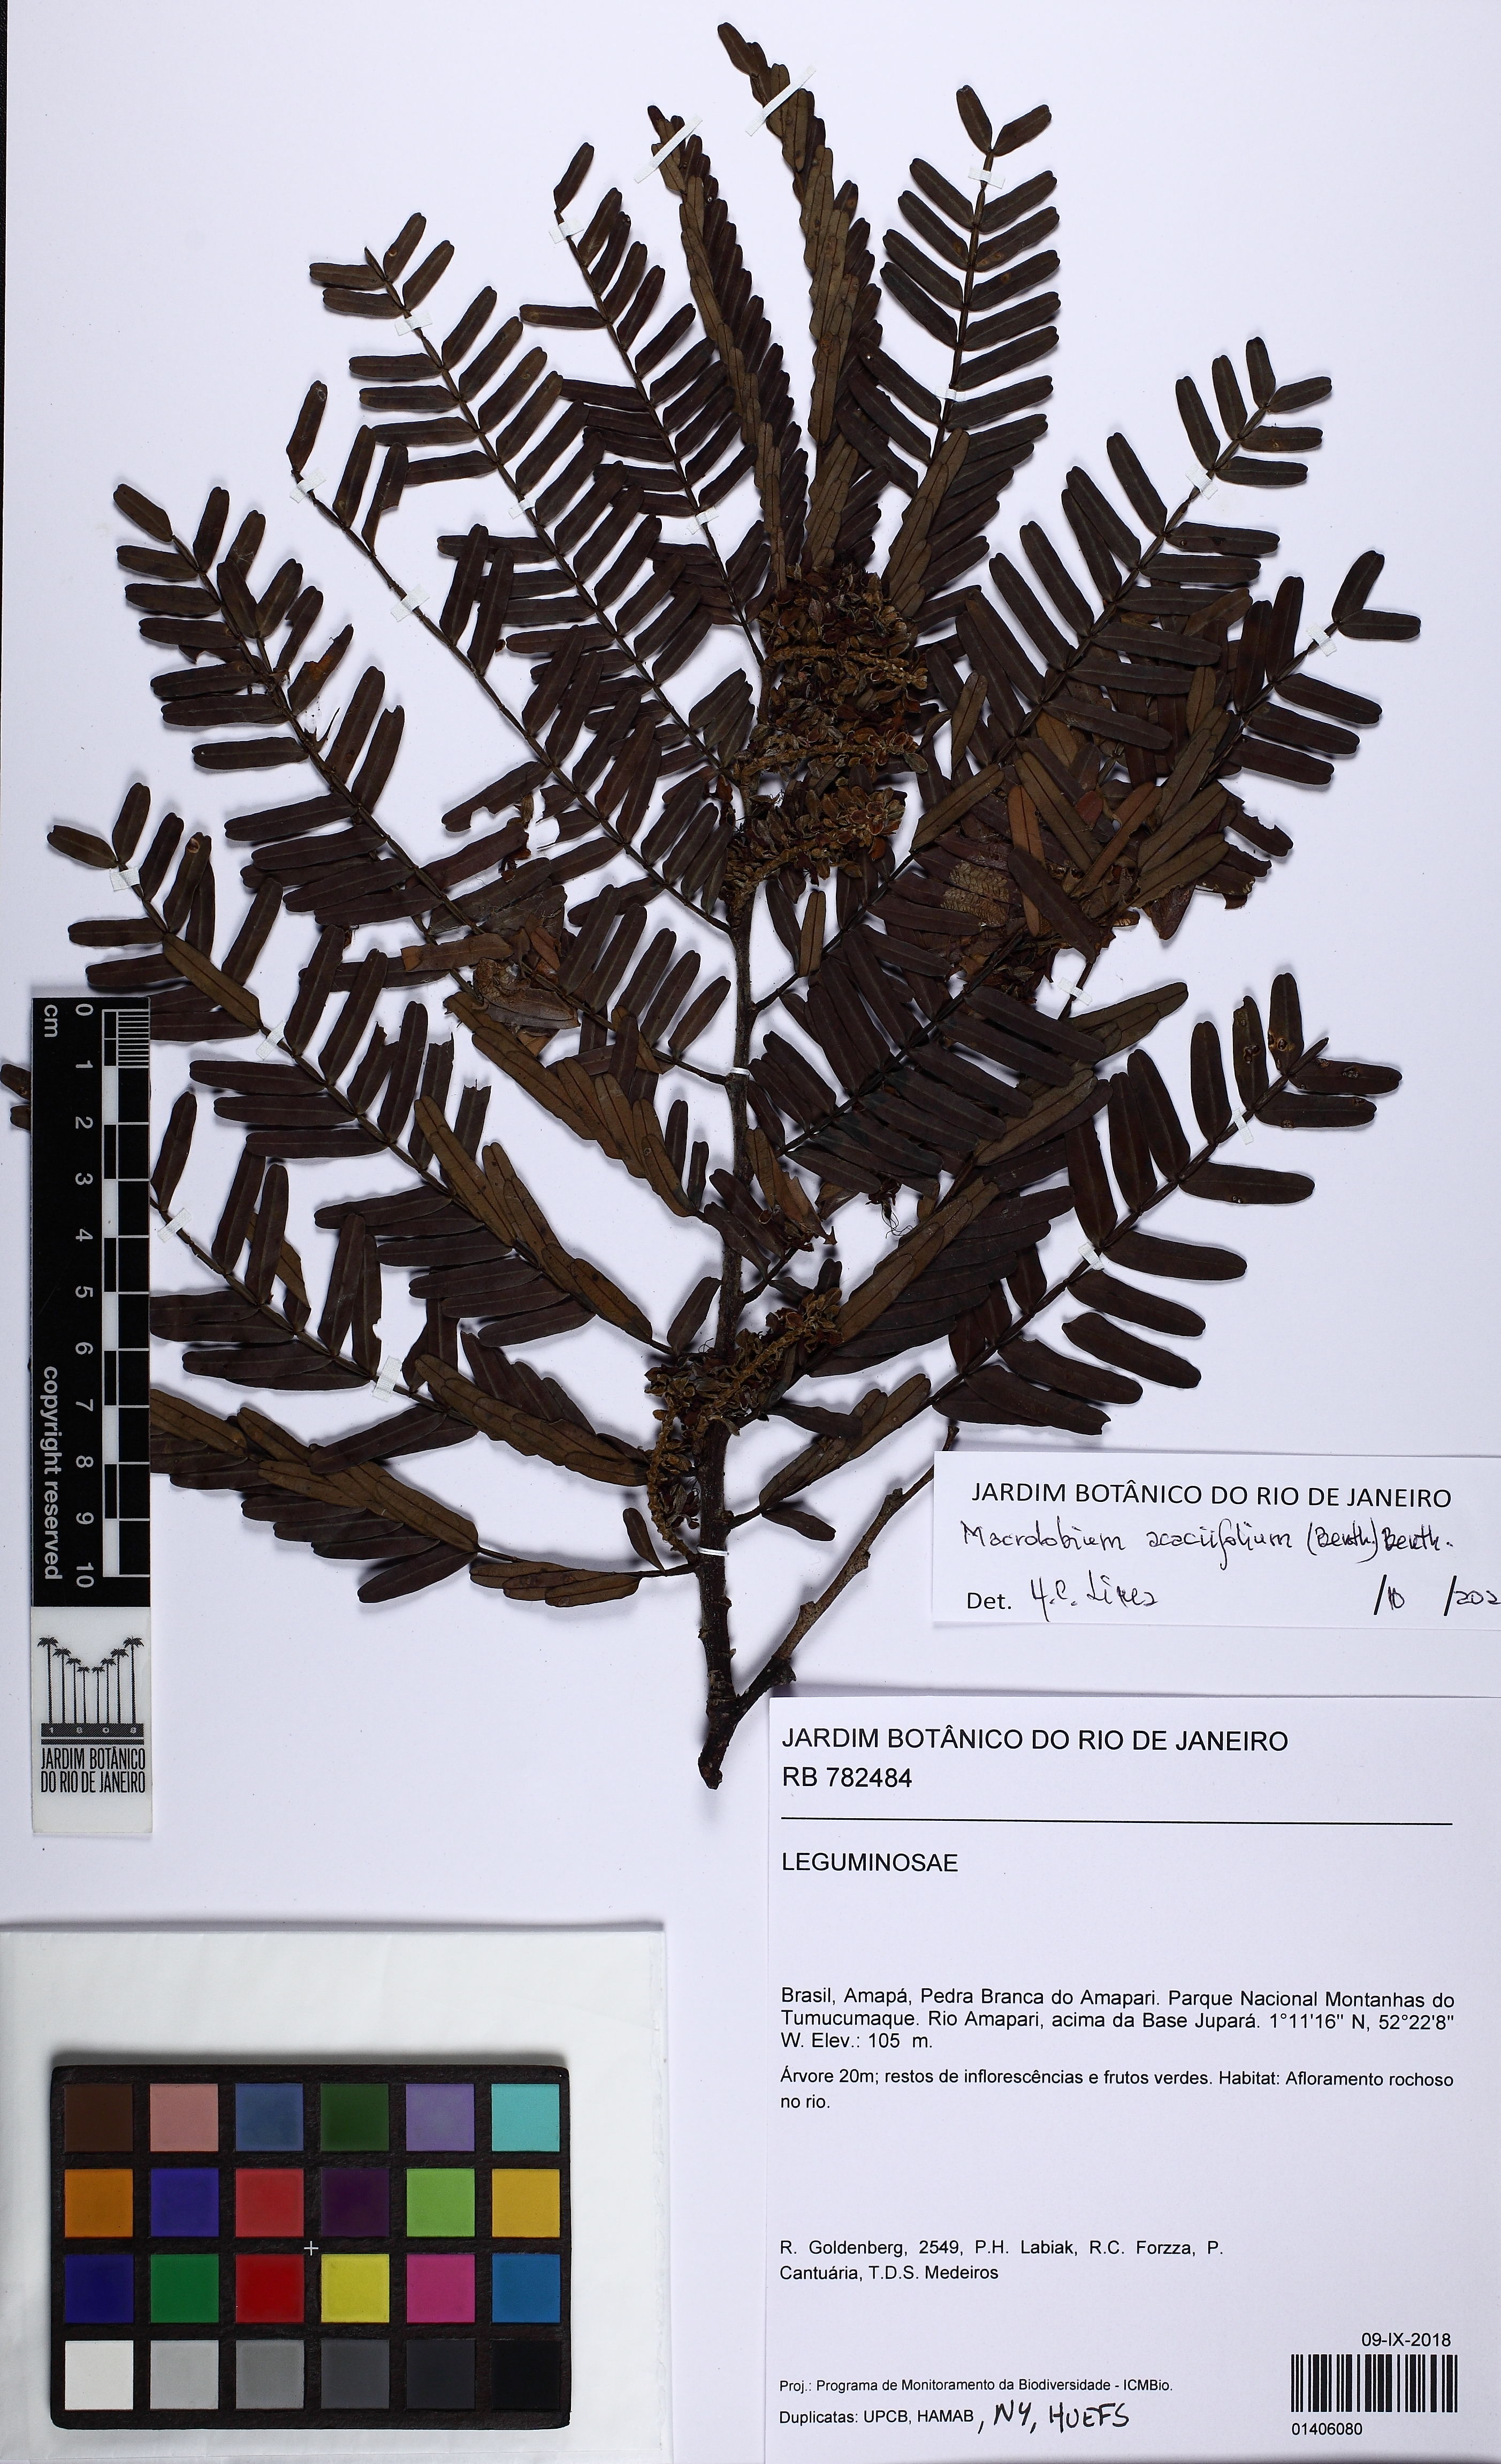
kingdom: Plantae
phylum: Tracheophyta
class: Magnoliopsida
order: Fabales
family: Fabaceae
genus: Macrolobium
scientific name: Macrolobium acaciifolium
